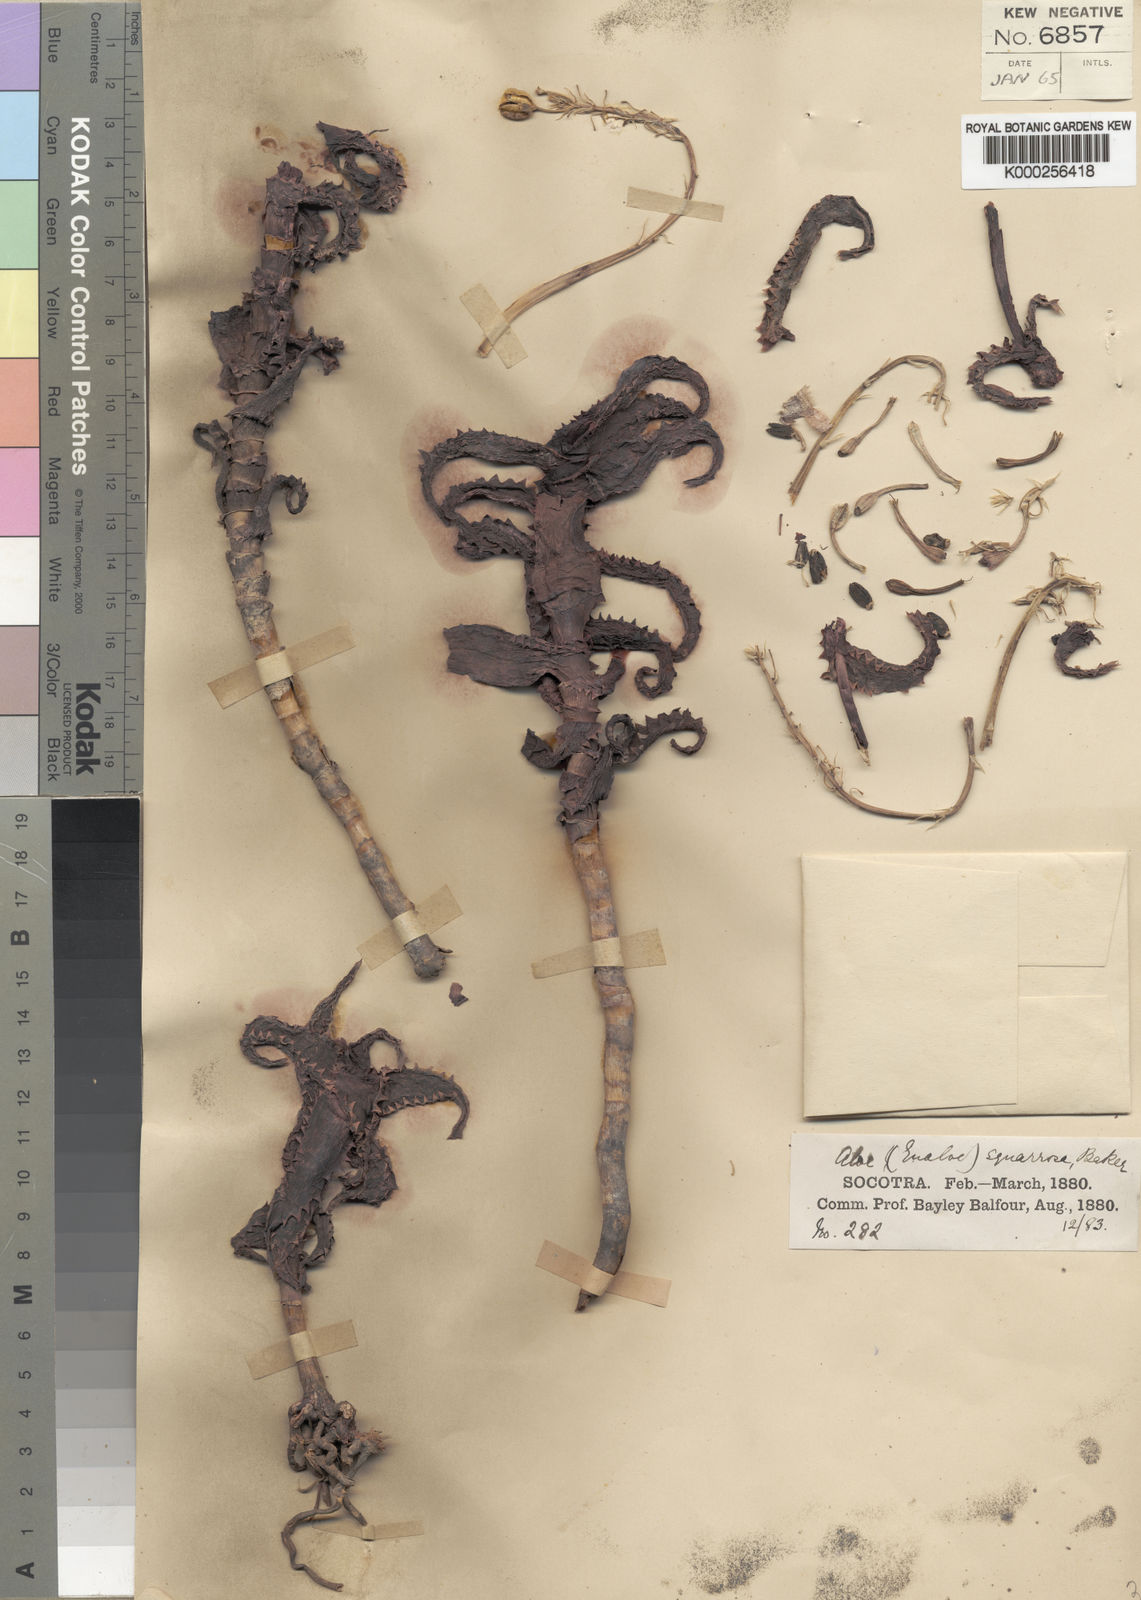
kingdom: Plantae
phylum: Tracheophyta
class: Liliopsida
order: Asparagales
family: Asphodelaceae
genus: Aloe
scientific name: Aloe squarrosa
